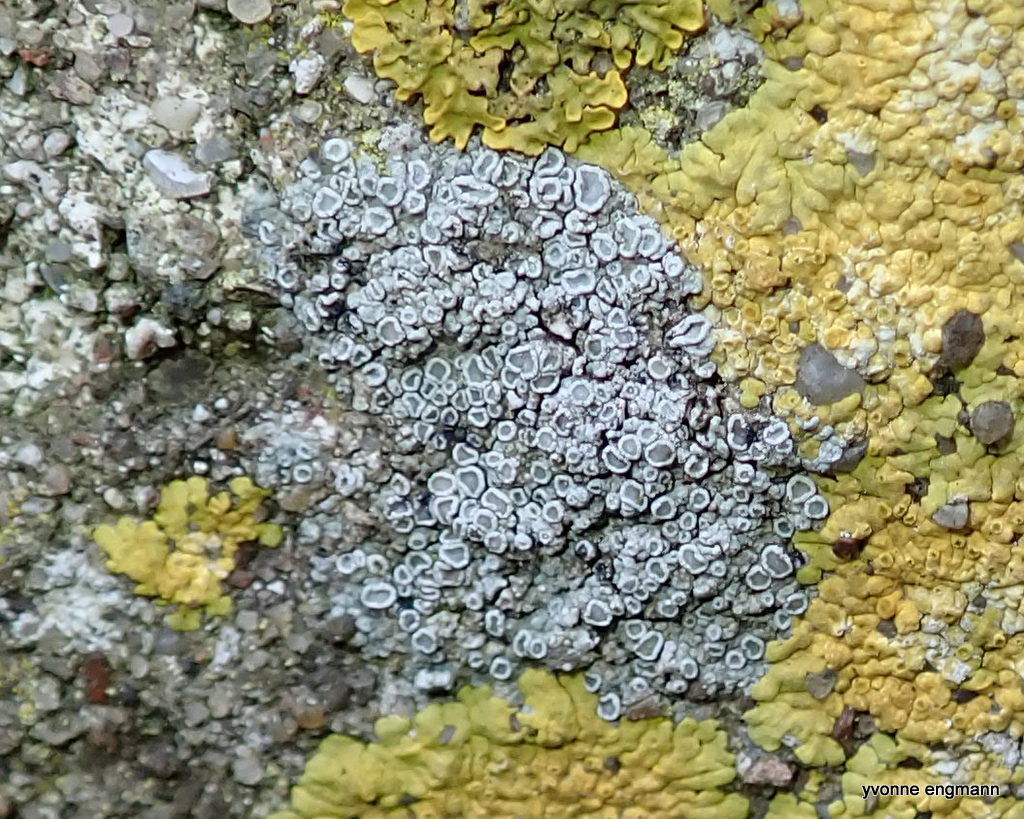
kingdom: Fungi
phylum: Ascomycota
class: Lecanoromycetes
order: Lecanorales
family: Lecanoraceae
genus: Polyozosia
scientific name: Polyozosia albescens
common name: cement-kantskivelav
